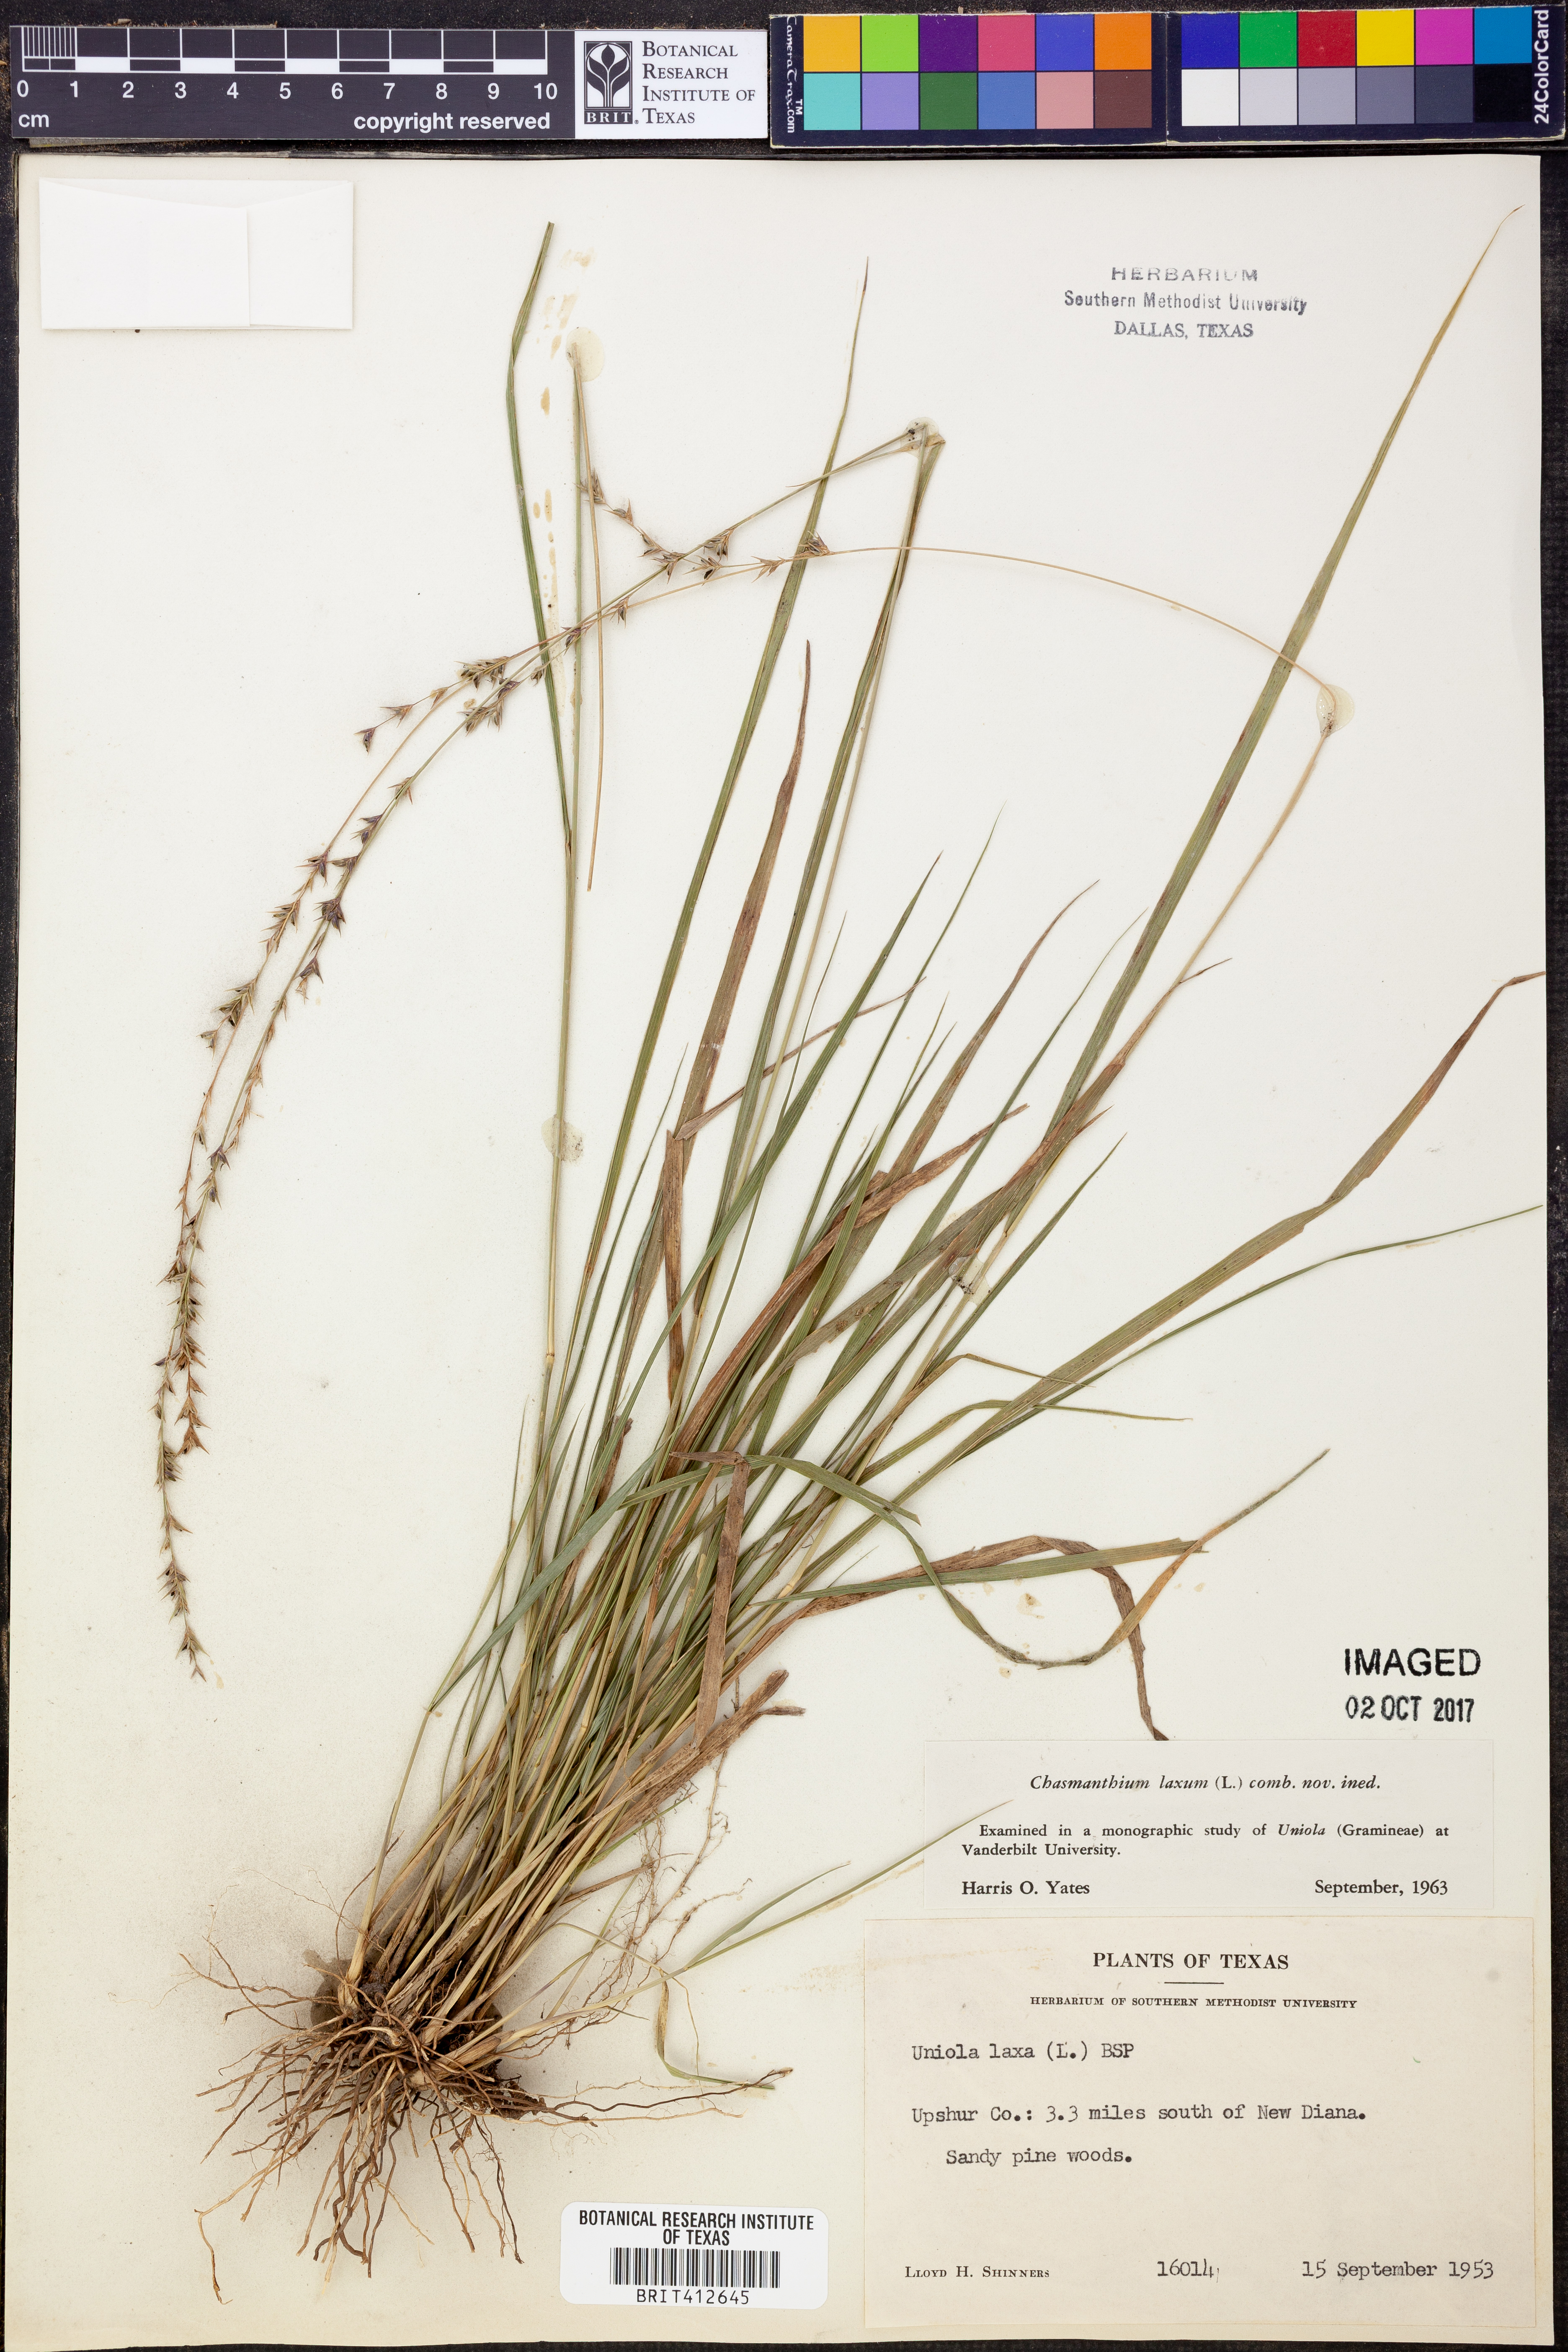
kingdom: Plantae
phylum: Tracheophyta
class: Liliopsida
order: Poales
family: Poaceae
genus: Chasmanthium
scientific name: Chasmanthium laxum
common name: Slender chasmanthium
